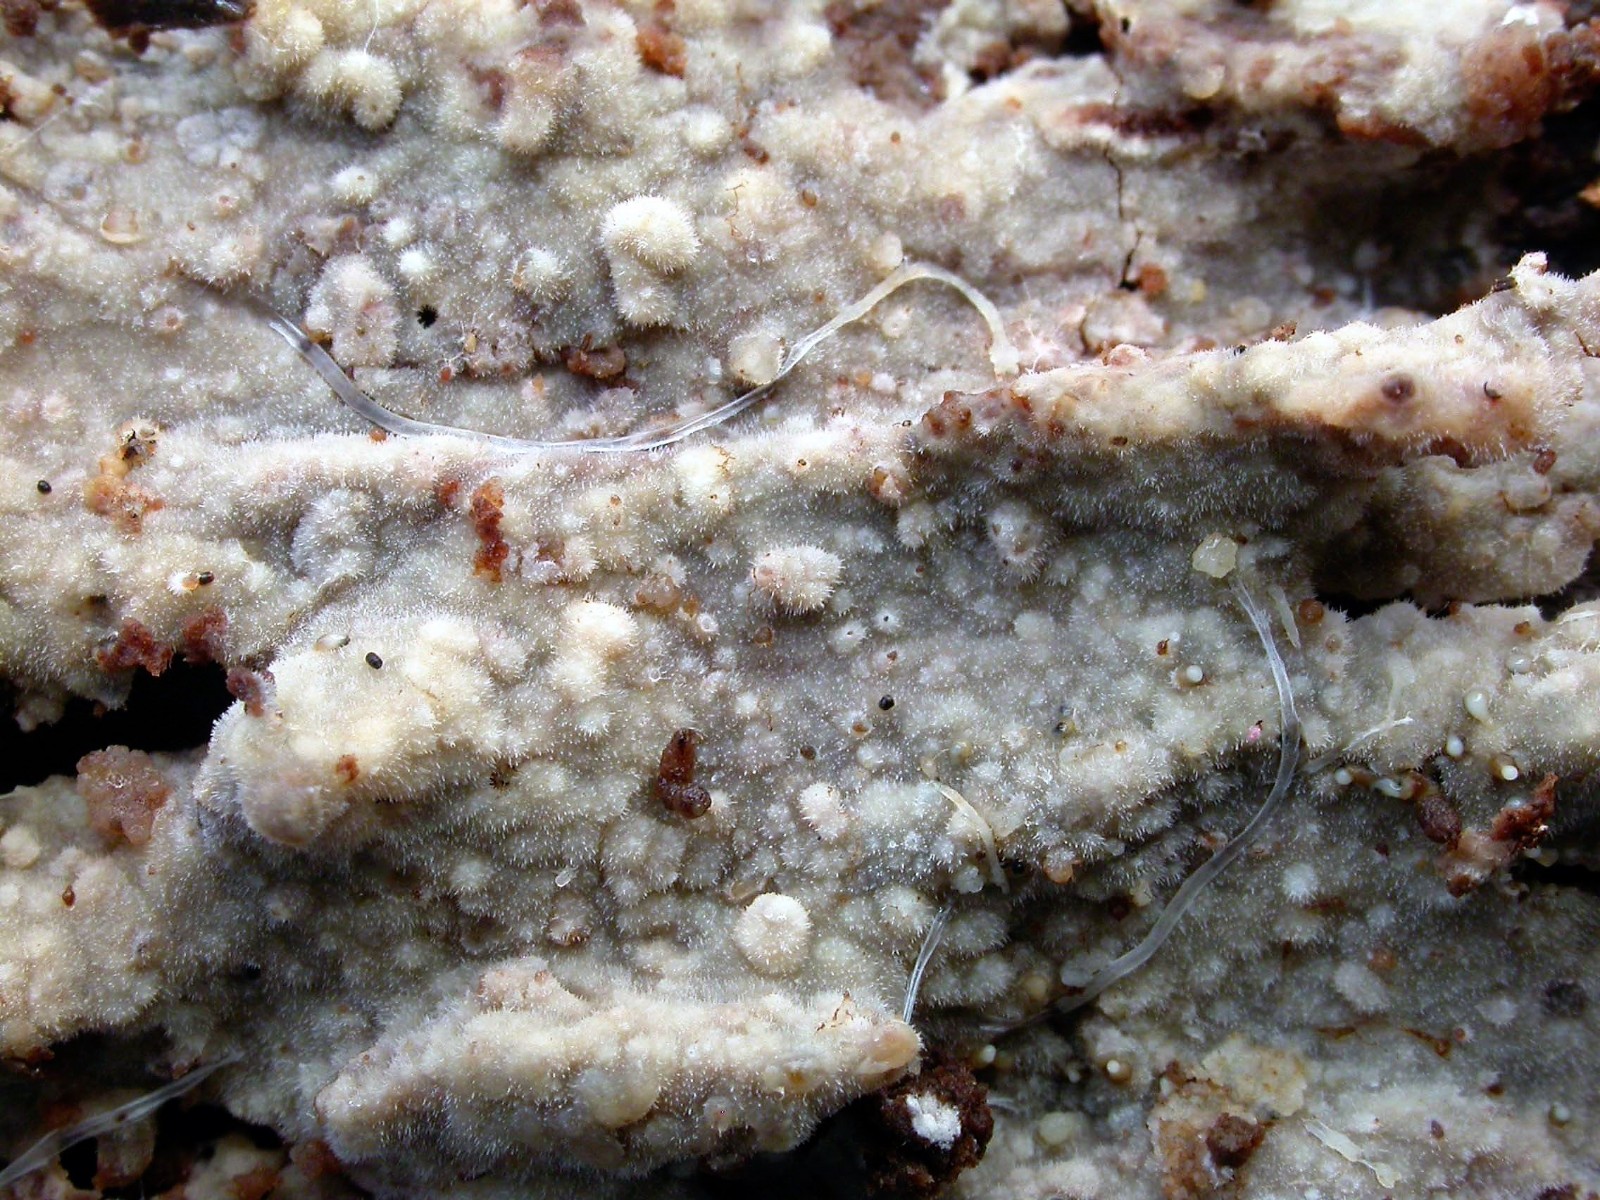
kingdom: Fungi
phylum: Basidiomycota
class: Agaricomycetes
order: Hymenochaetales
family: Rickenellaceae
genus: Peniophorella
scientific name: Peniophorella pubera
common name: dunet kalkskind
